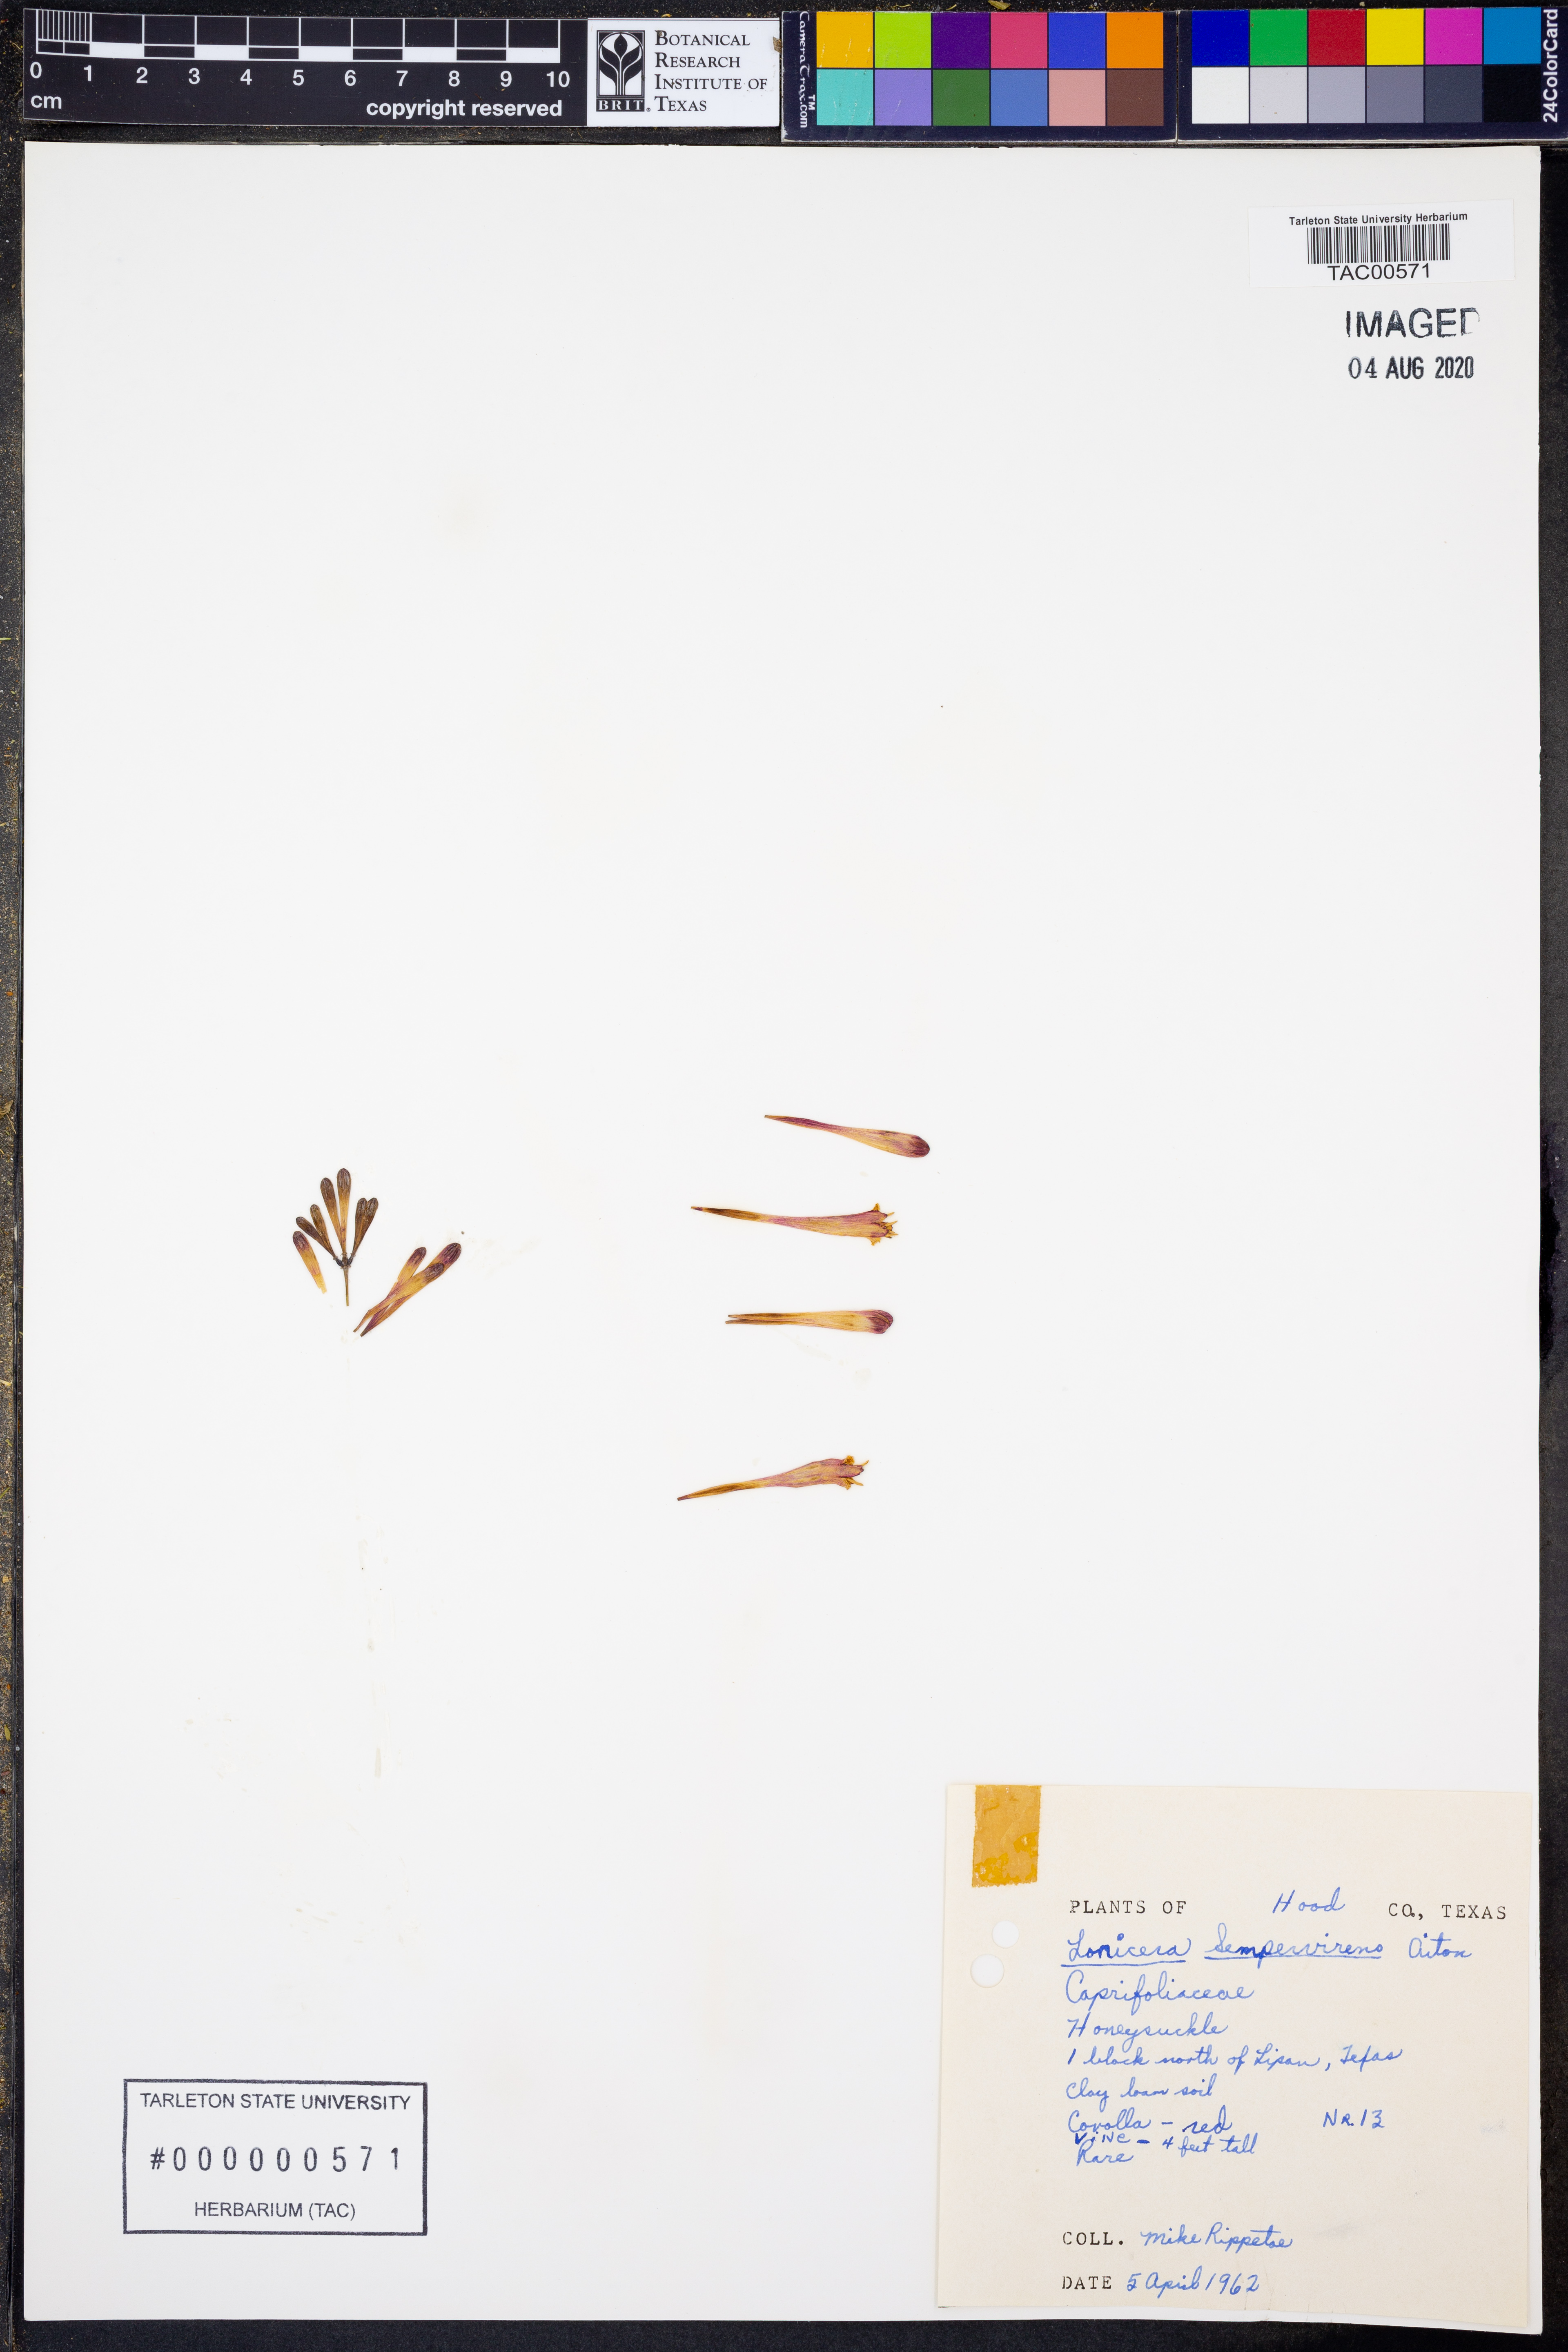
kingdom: Plantae
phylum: Tracheophyta
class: Magnoliopsida
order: Dipsacales
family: Caprifoliaceae
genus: Lonicera
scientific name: Lonicera sempervirens
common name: Coral honeysuckle
